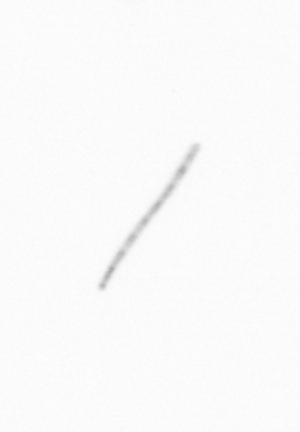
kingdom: Chromista
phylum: Ochrophyta
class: Bacillariophyceae
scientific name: Bacillariophyceae
